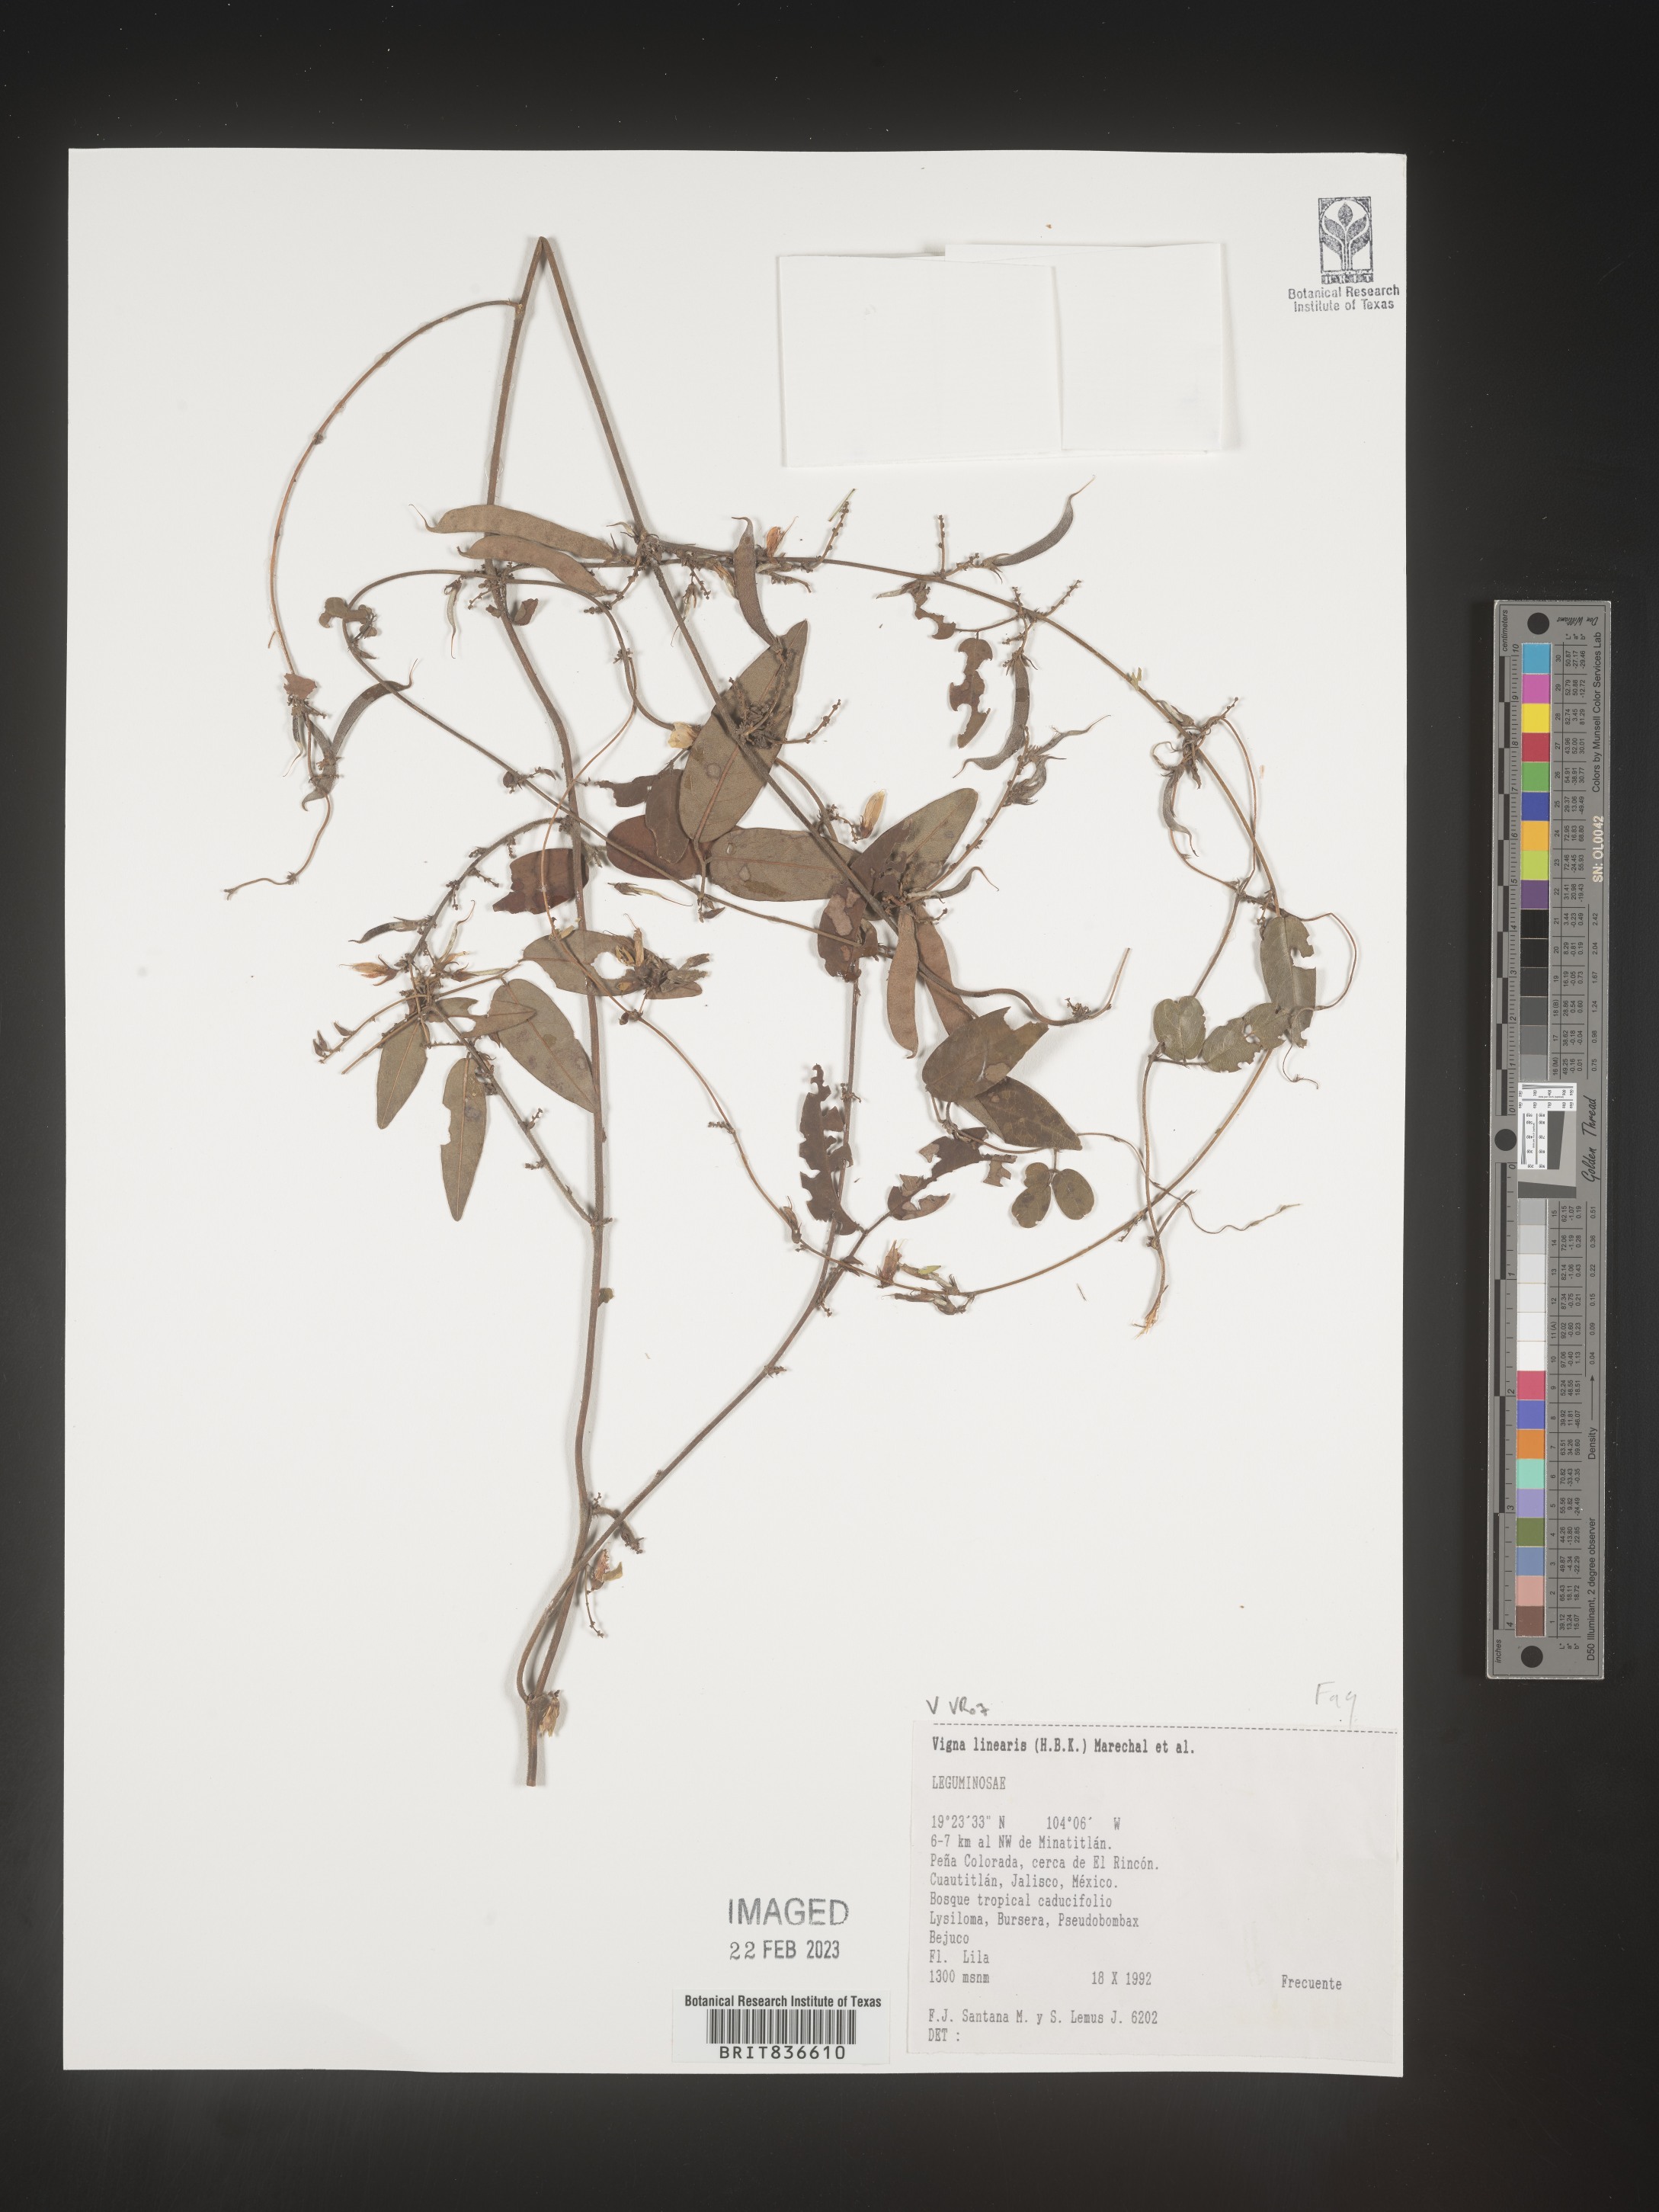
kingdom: Plantae
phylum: Tracheophyta
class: Magnoliopsida
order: Fabales
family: Fabaceae
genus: Vigna
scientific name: Vigna
